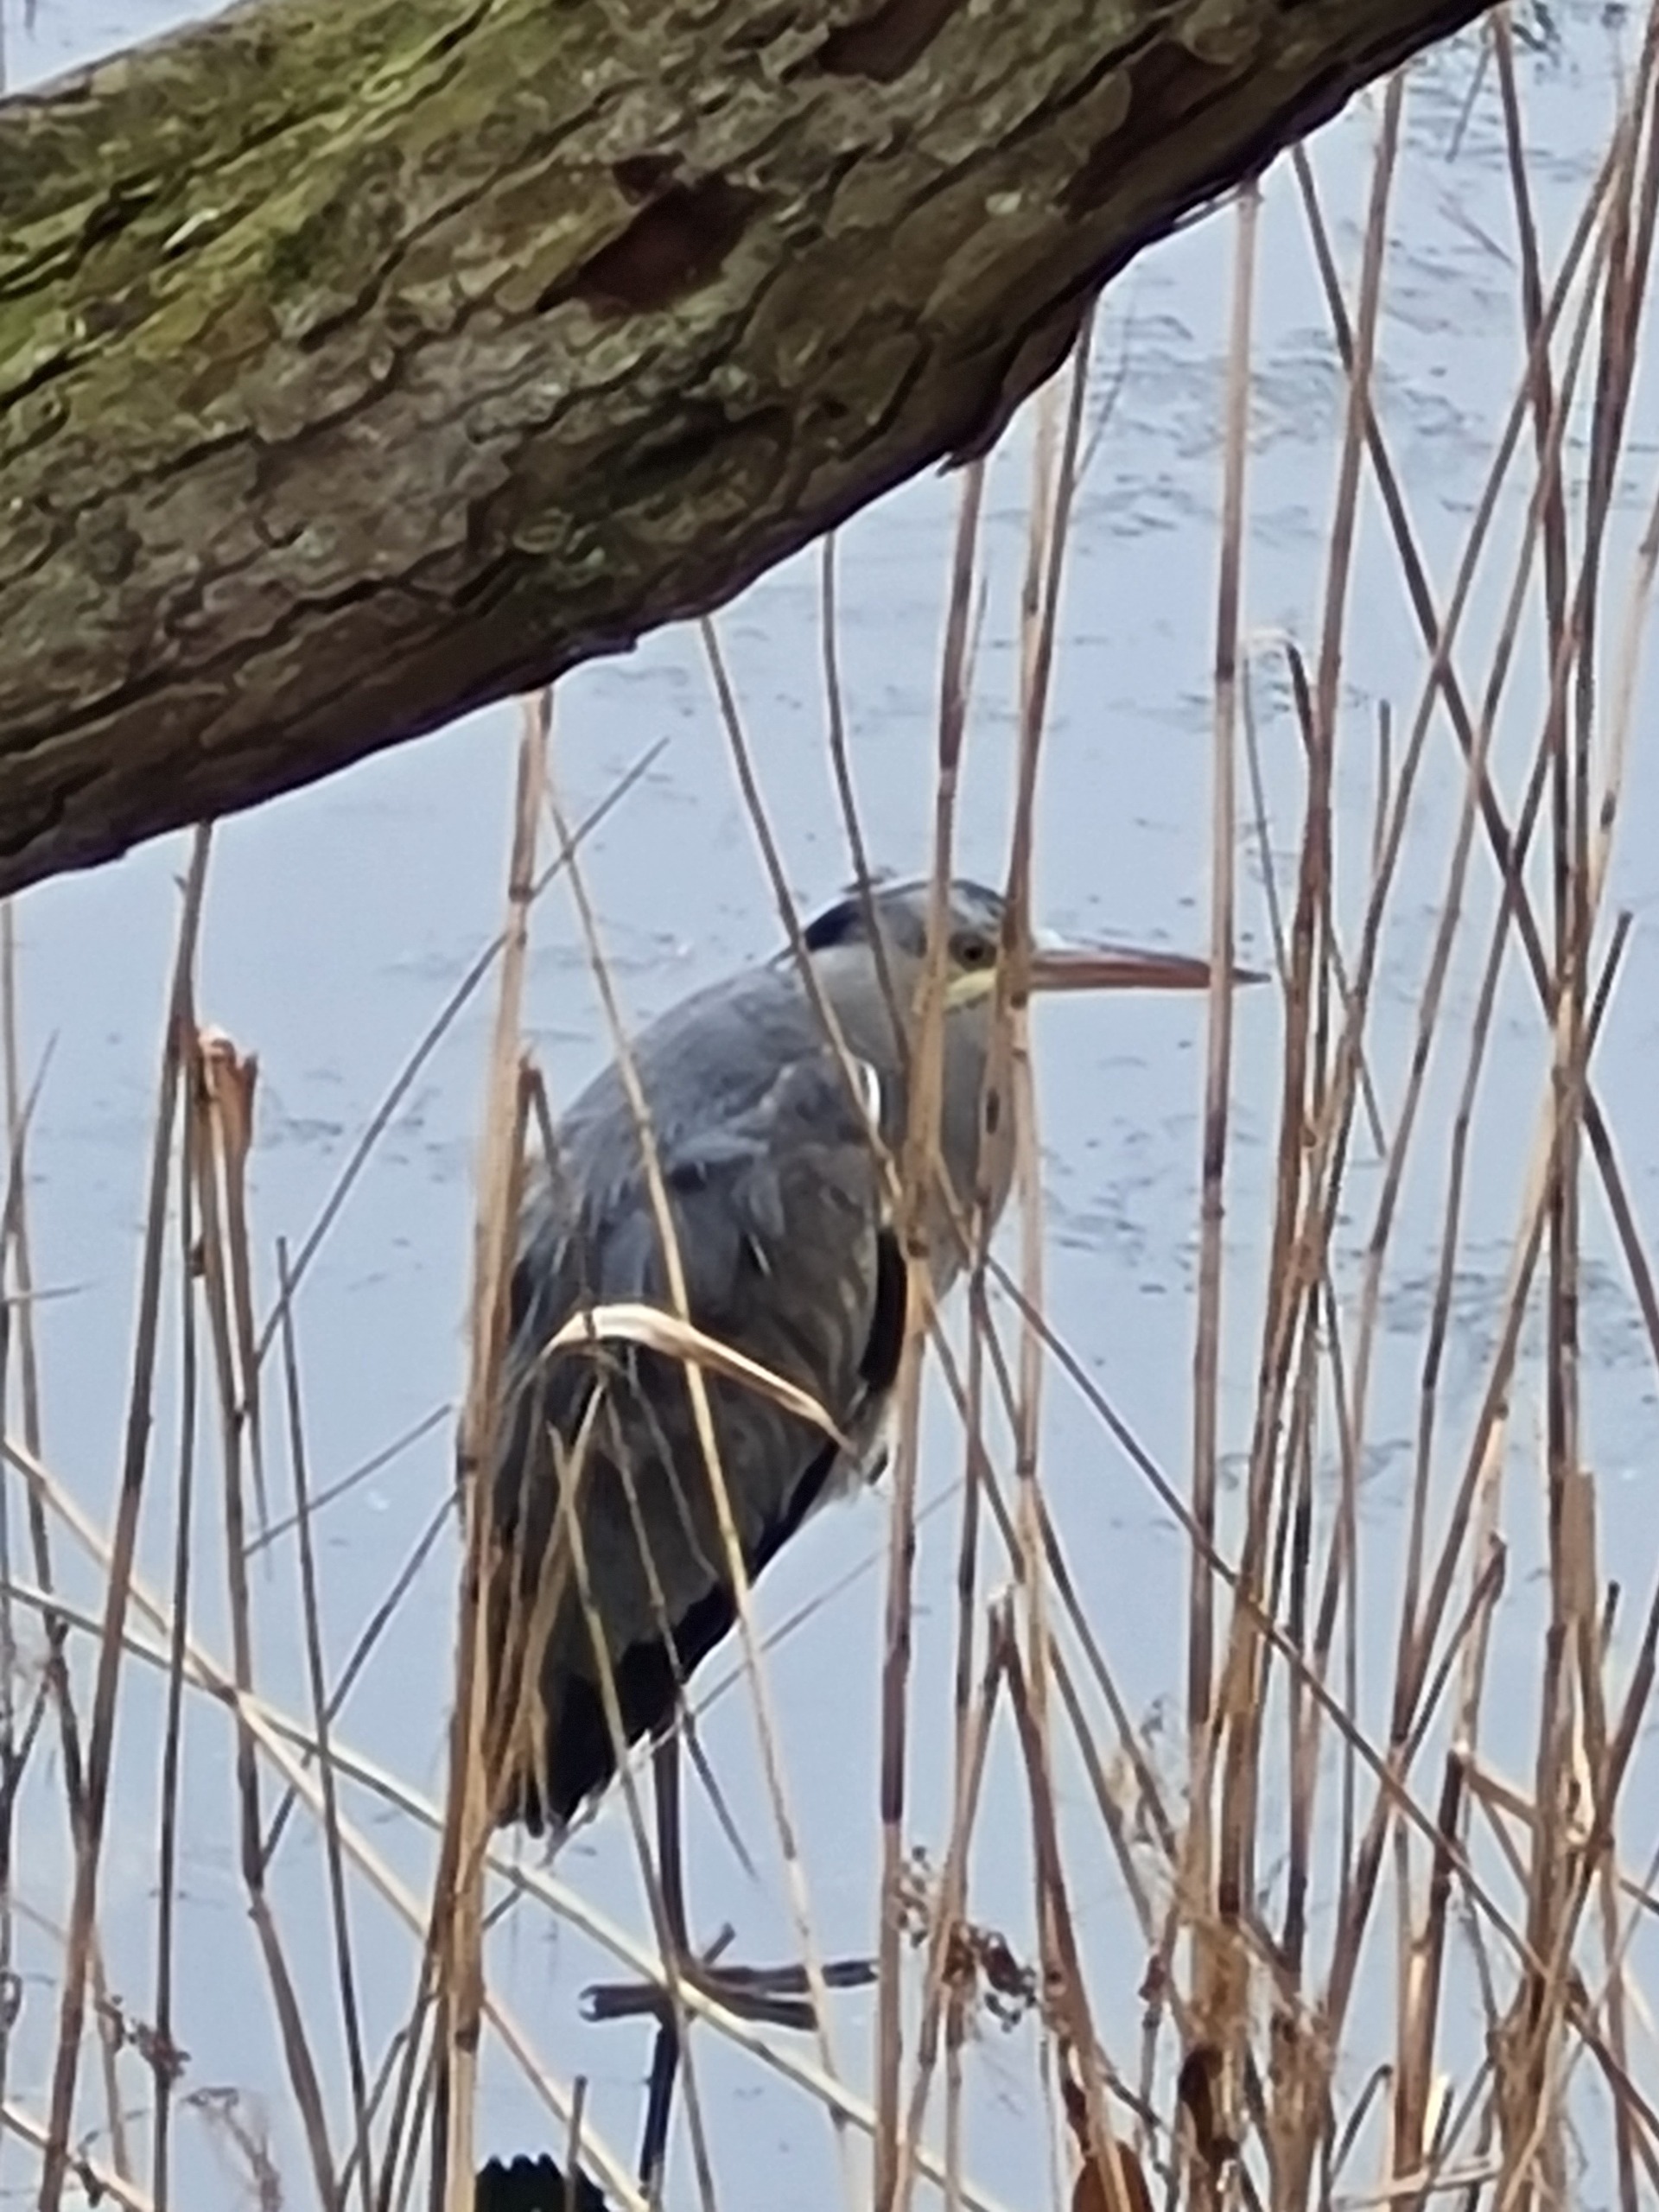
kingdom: Animalia
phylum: Chordata
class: Aves
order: Pelecaniformes
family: Ardeidae
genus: Ardea
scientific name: Ardea cinerea
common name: Fiskehejre
